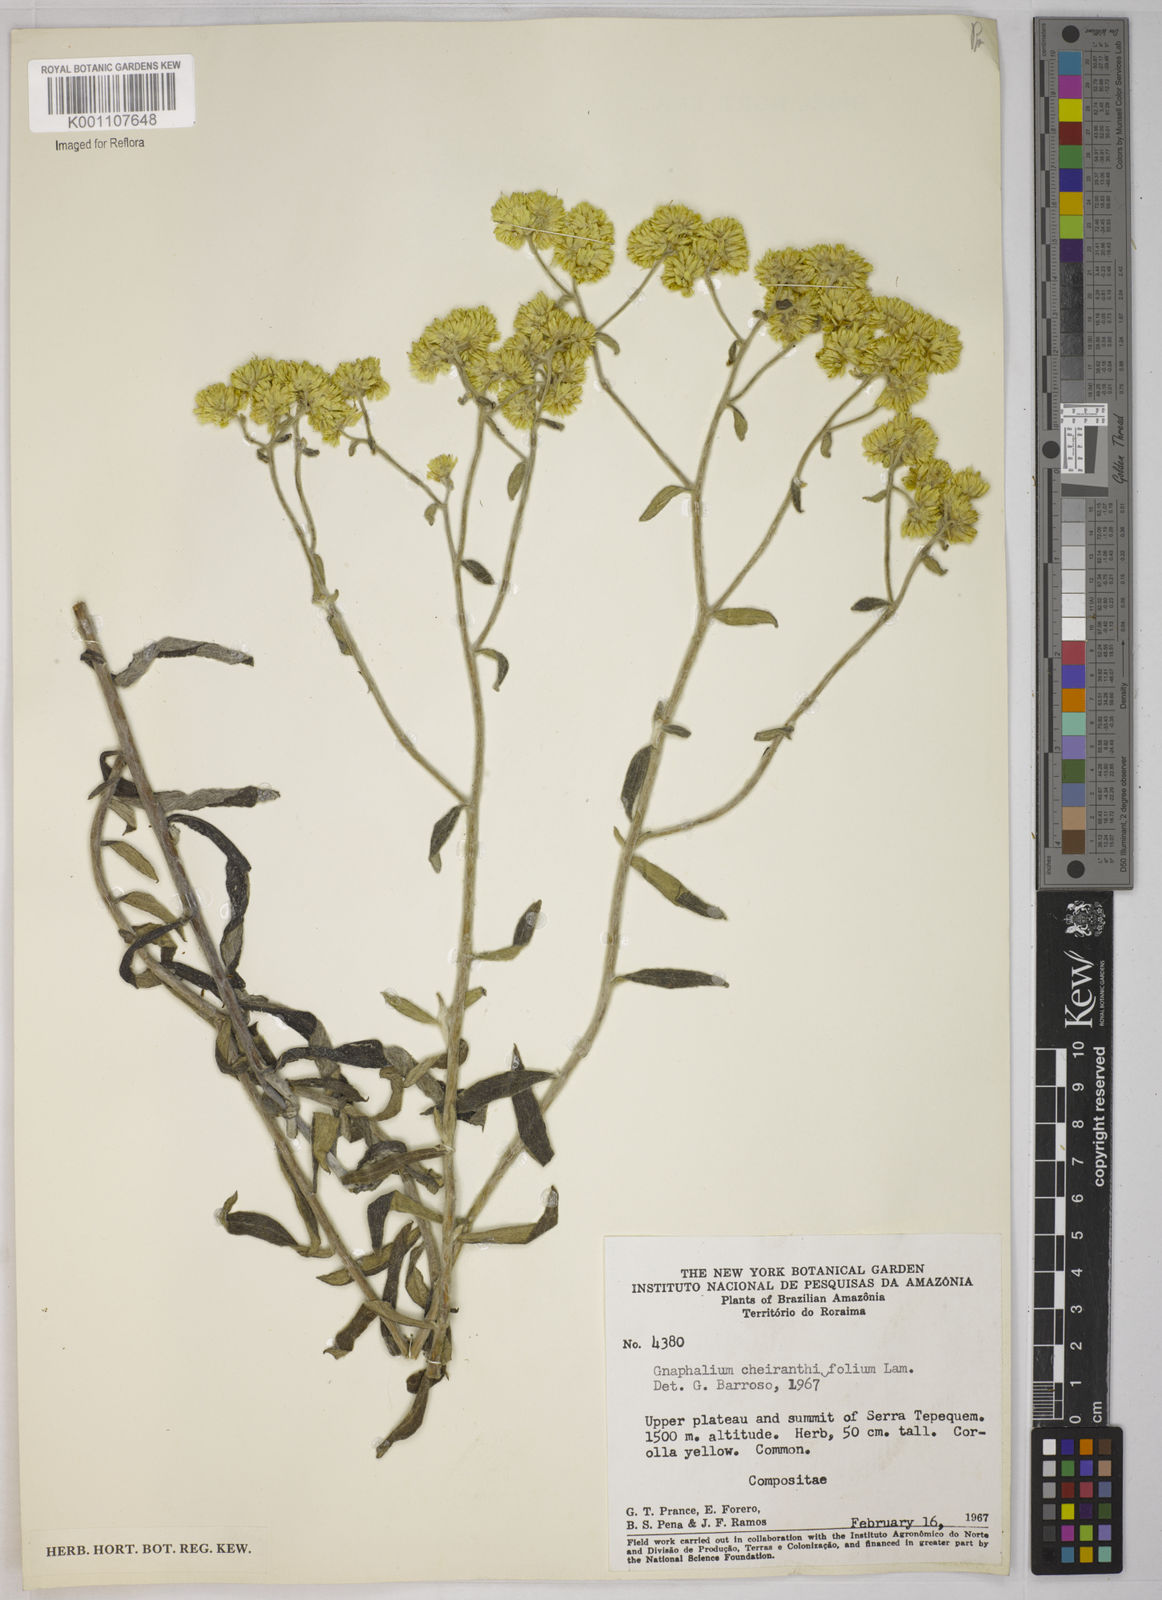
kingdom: Plantae
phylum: Tracheophyta
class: Magnoliopsida
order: Asterales
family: Asteraceae
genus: Pseudognaphalium
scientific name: Pseudognaphalium cheiranthifolium
